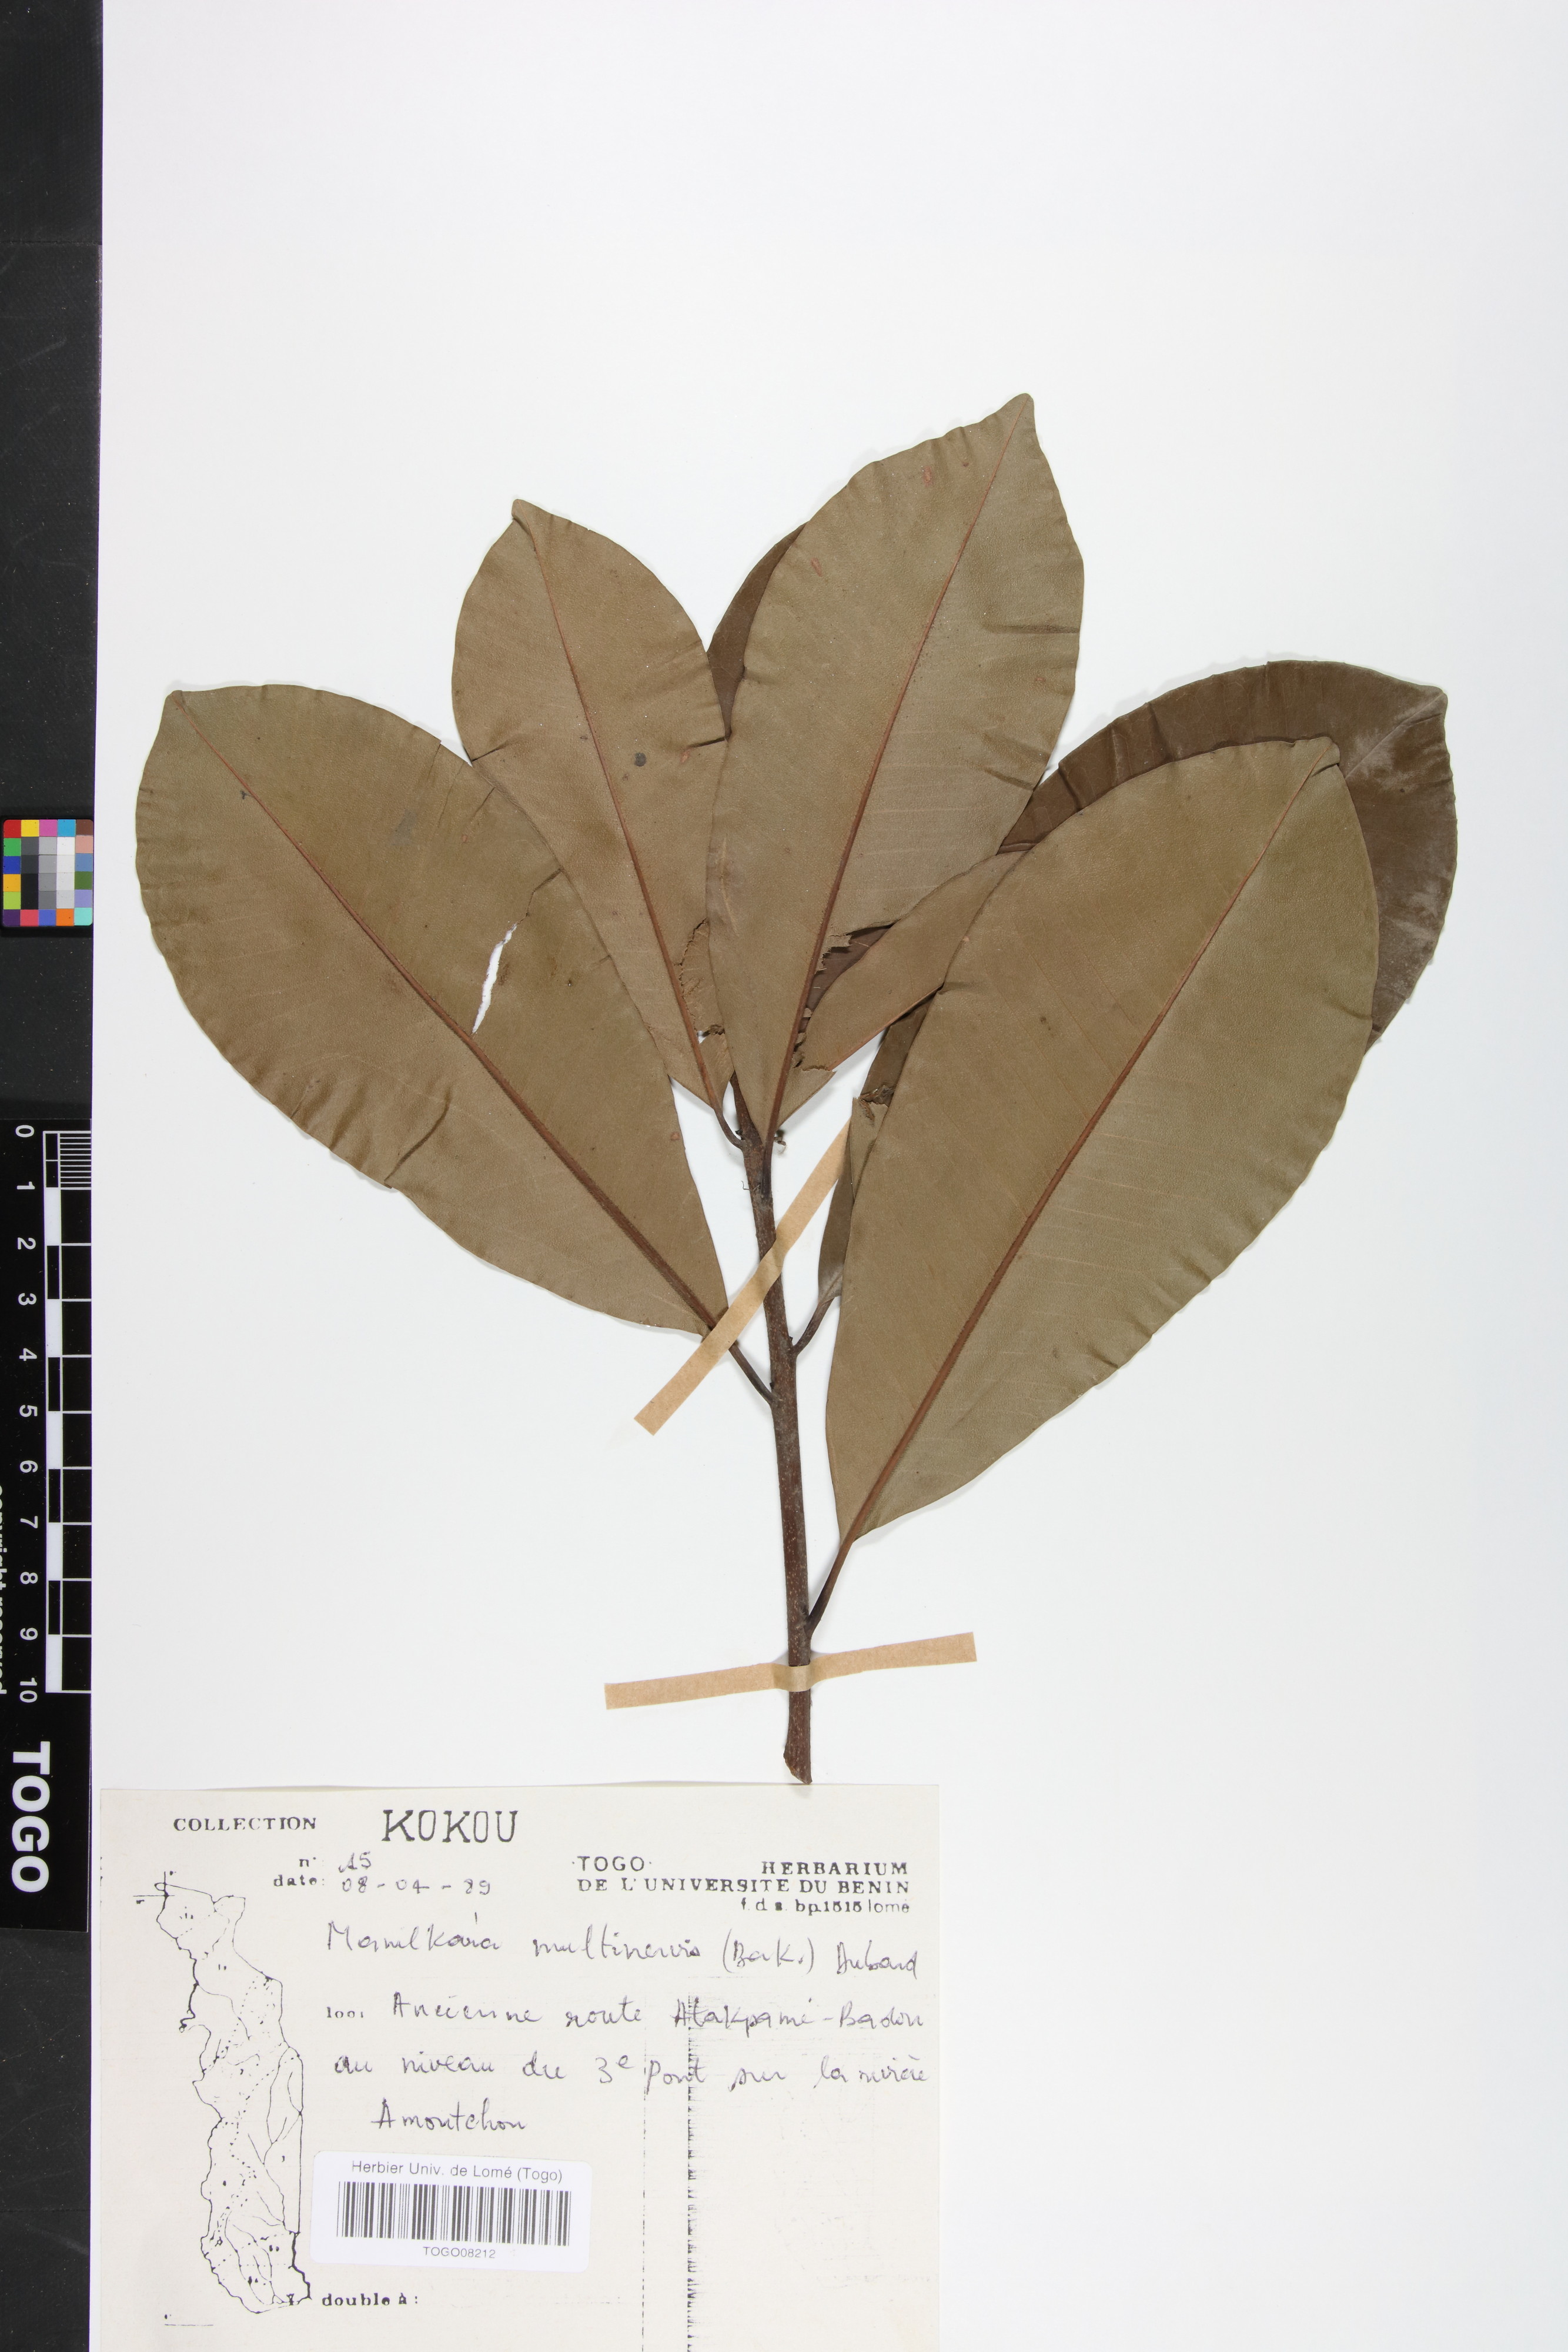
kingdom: Plantae
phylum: Tracheophyta
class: Magnoliopsida
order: Ericales
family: Sapotaceae
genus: Manilkara
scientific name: Manilkara obovata
